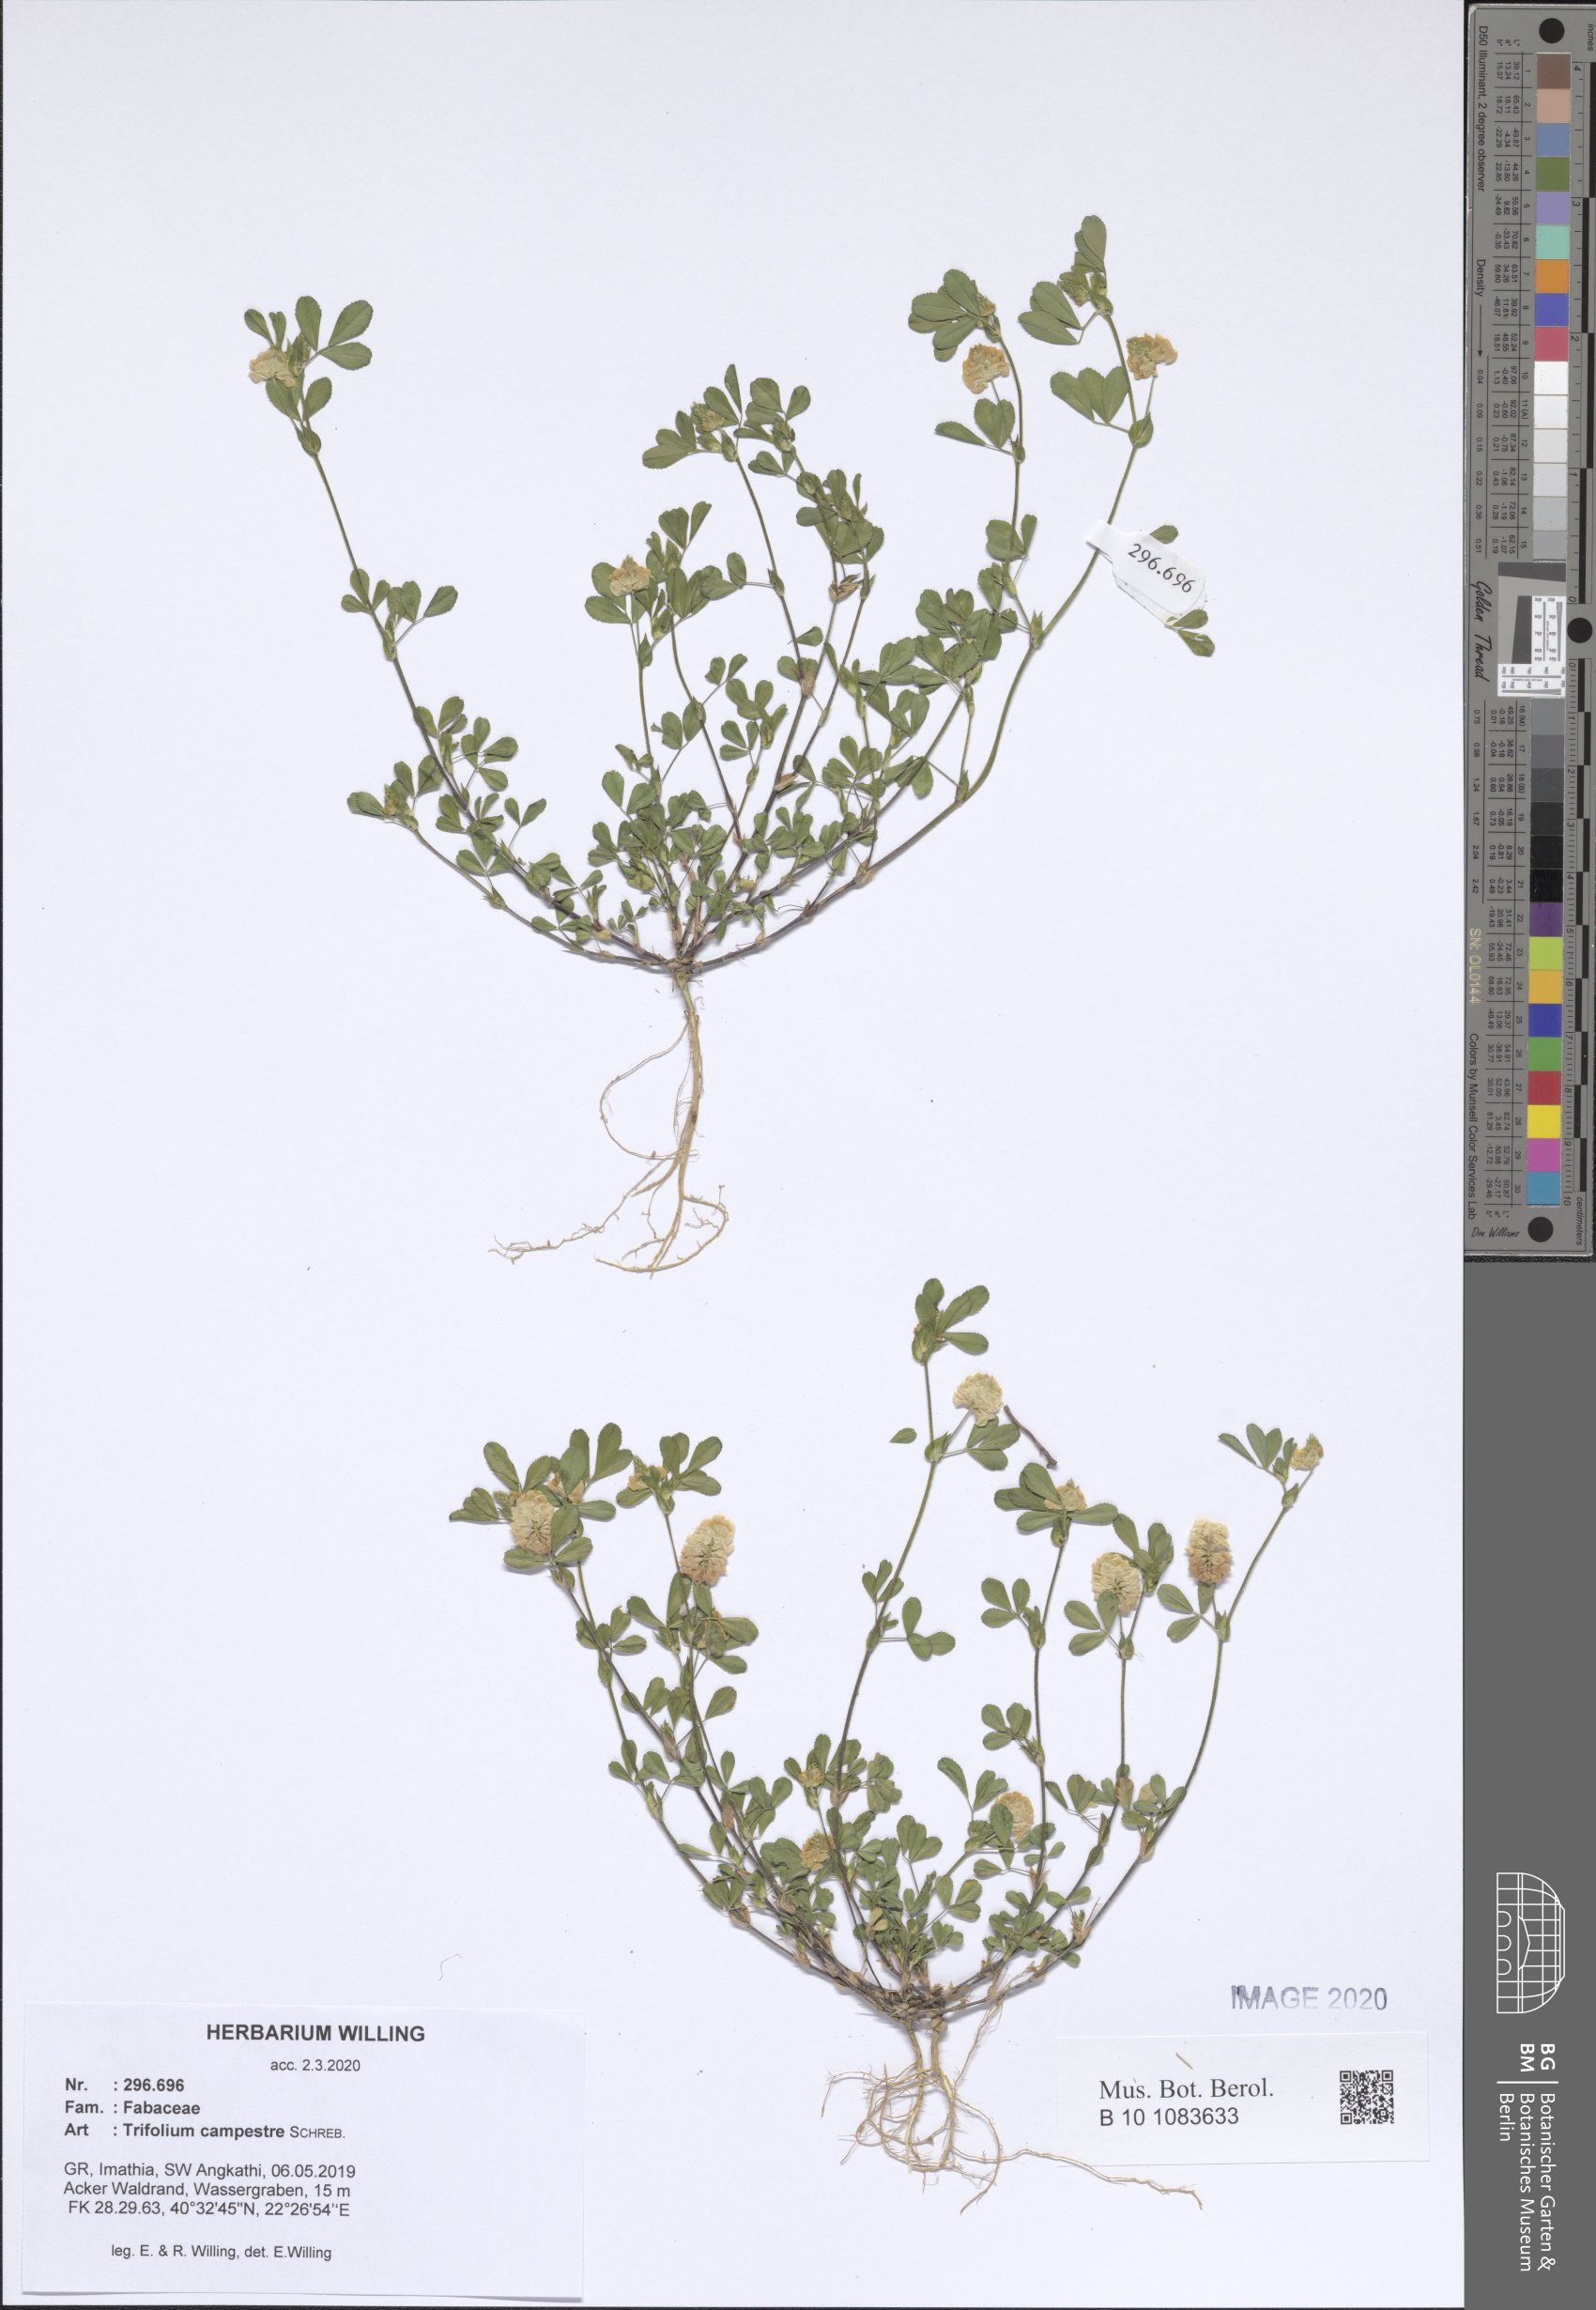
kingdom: Plantae
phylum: Tracheophyta
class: Magnoliopsida
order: Fabales
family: Fabaceae
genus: Trifolium
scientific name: Trifolium campestre
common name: Field clover
